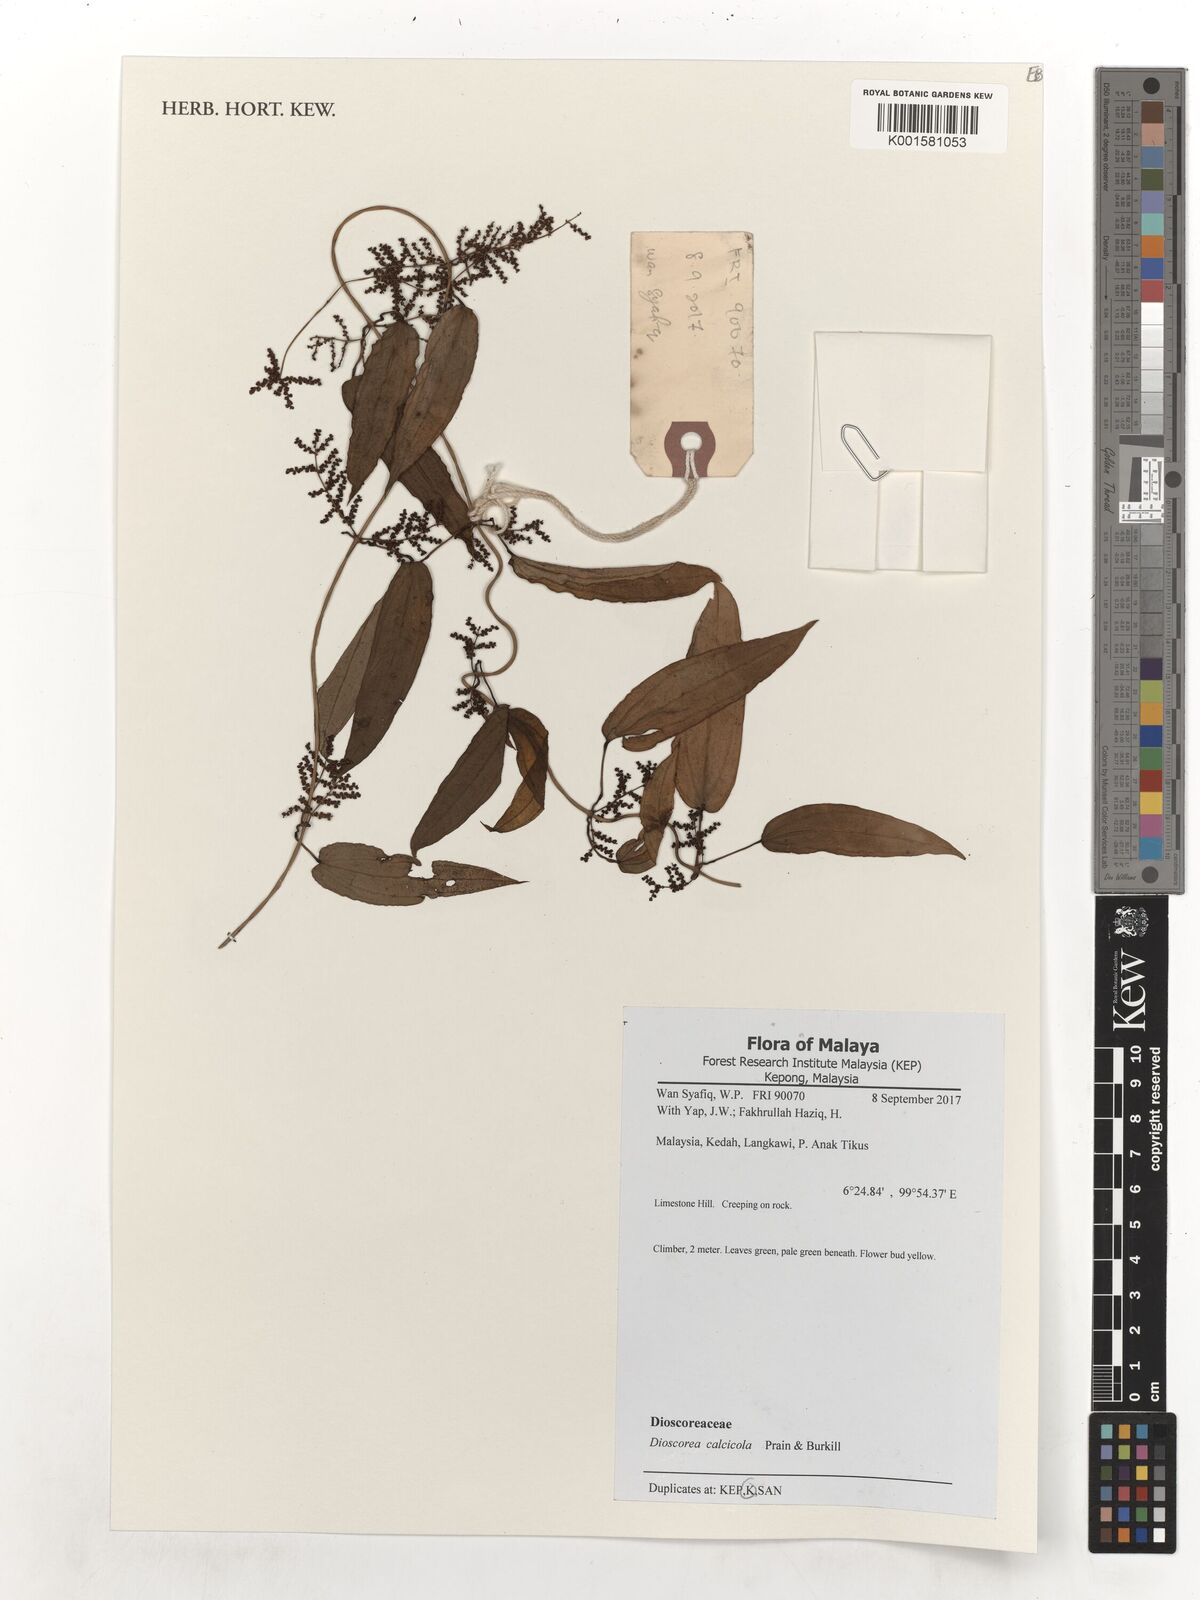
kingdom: Plantae
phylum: Tracheophyta
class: Liliopsida
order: Dioscoreales
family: Dioscoreaceae
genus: Dioscorea
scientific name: Dioscorea calcicola
